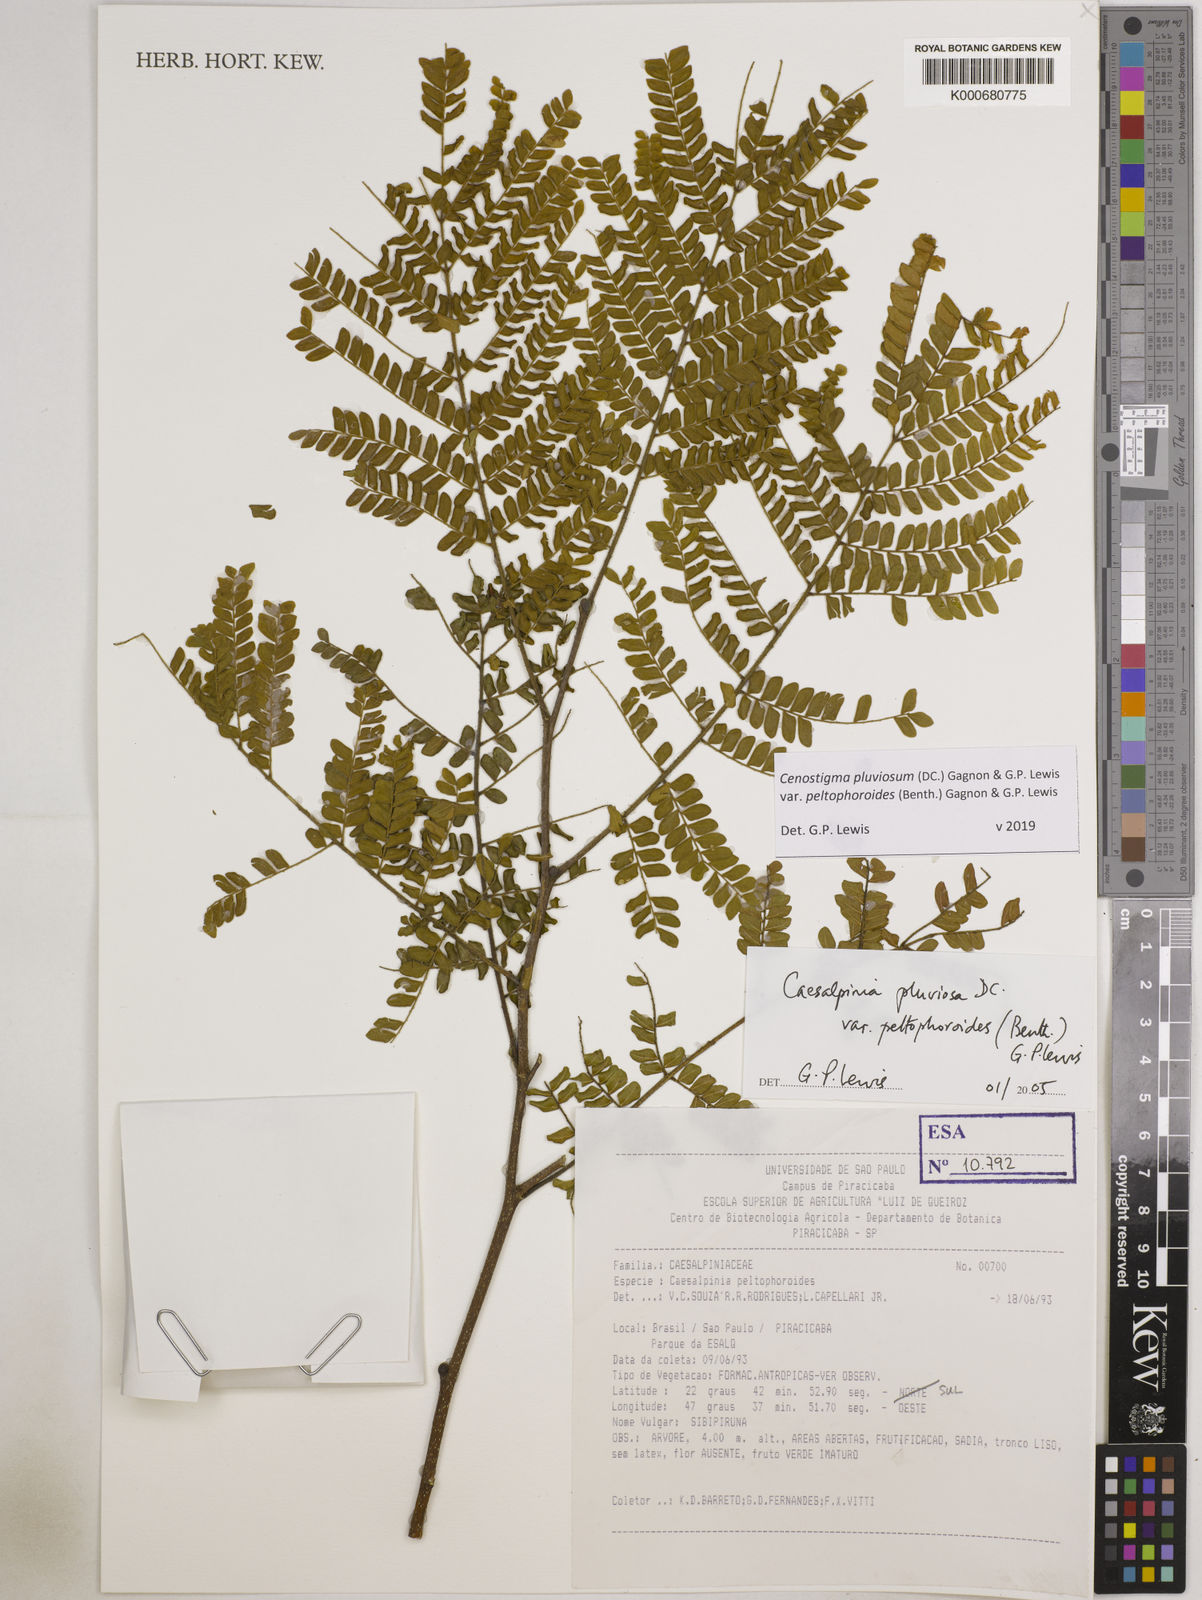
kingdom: Plantae
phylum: Tracheophyta
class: Magnoliopsida
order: Fabales
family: Fabaceae
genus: Cenostigma
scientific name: Cenostigma pluviosum
